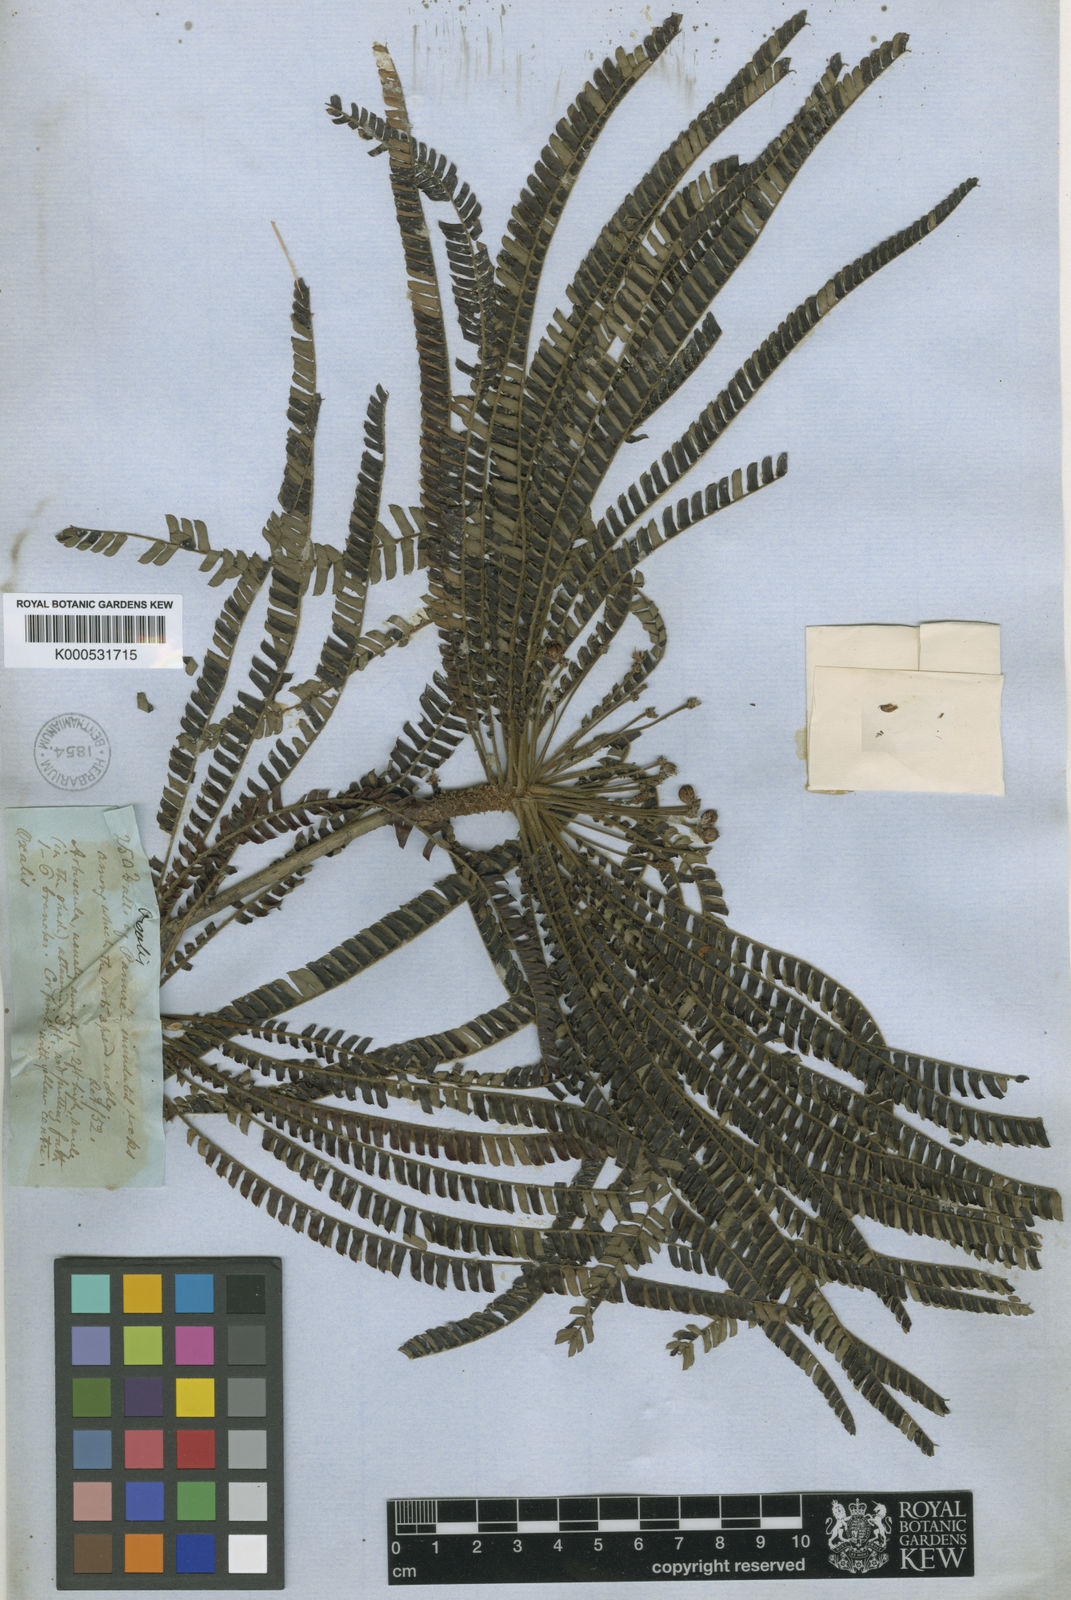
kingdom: Plantae
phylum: Tracheophyta
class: Magnoliopsida
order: Oxalidales
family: Oxalidaceae
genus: Biophytum
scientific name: Biophytum calophyllum
